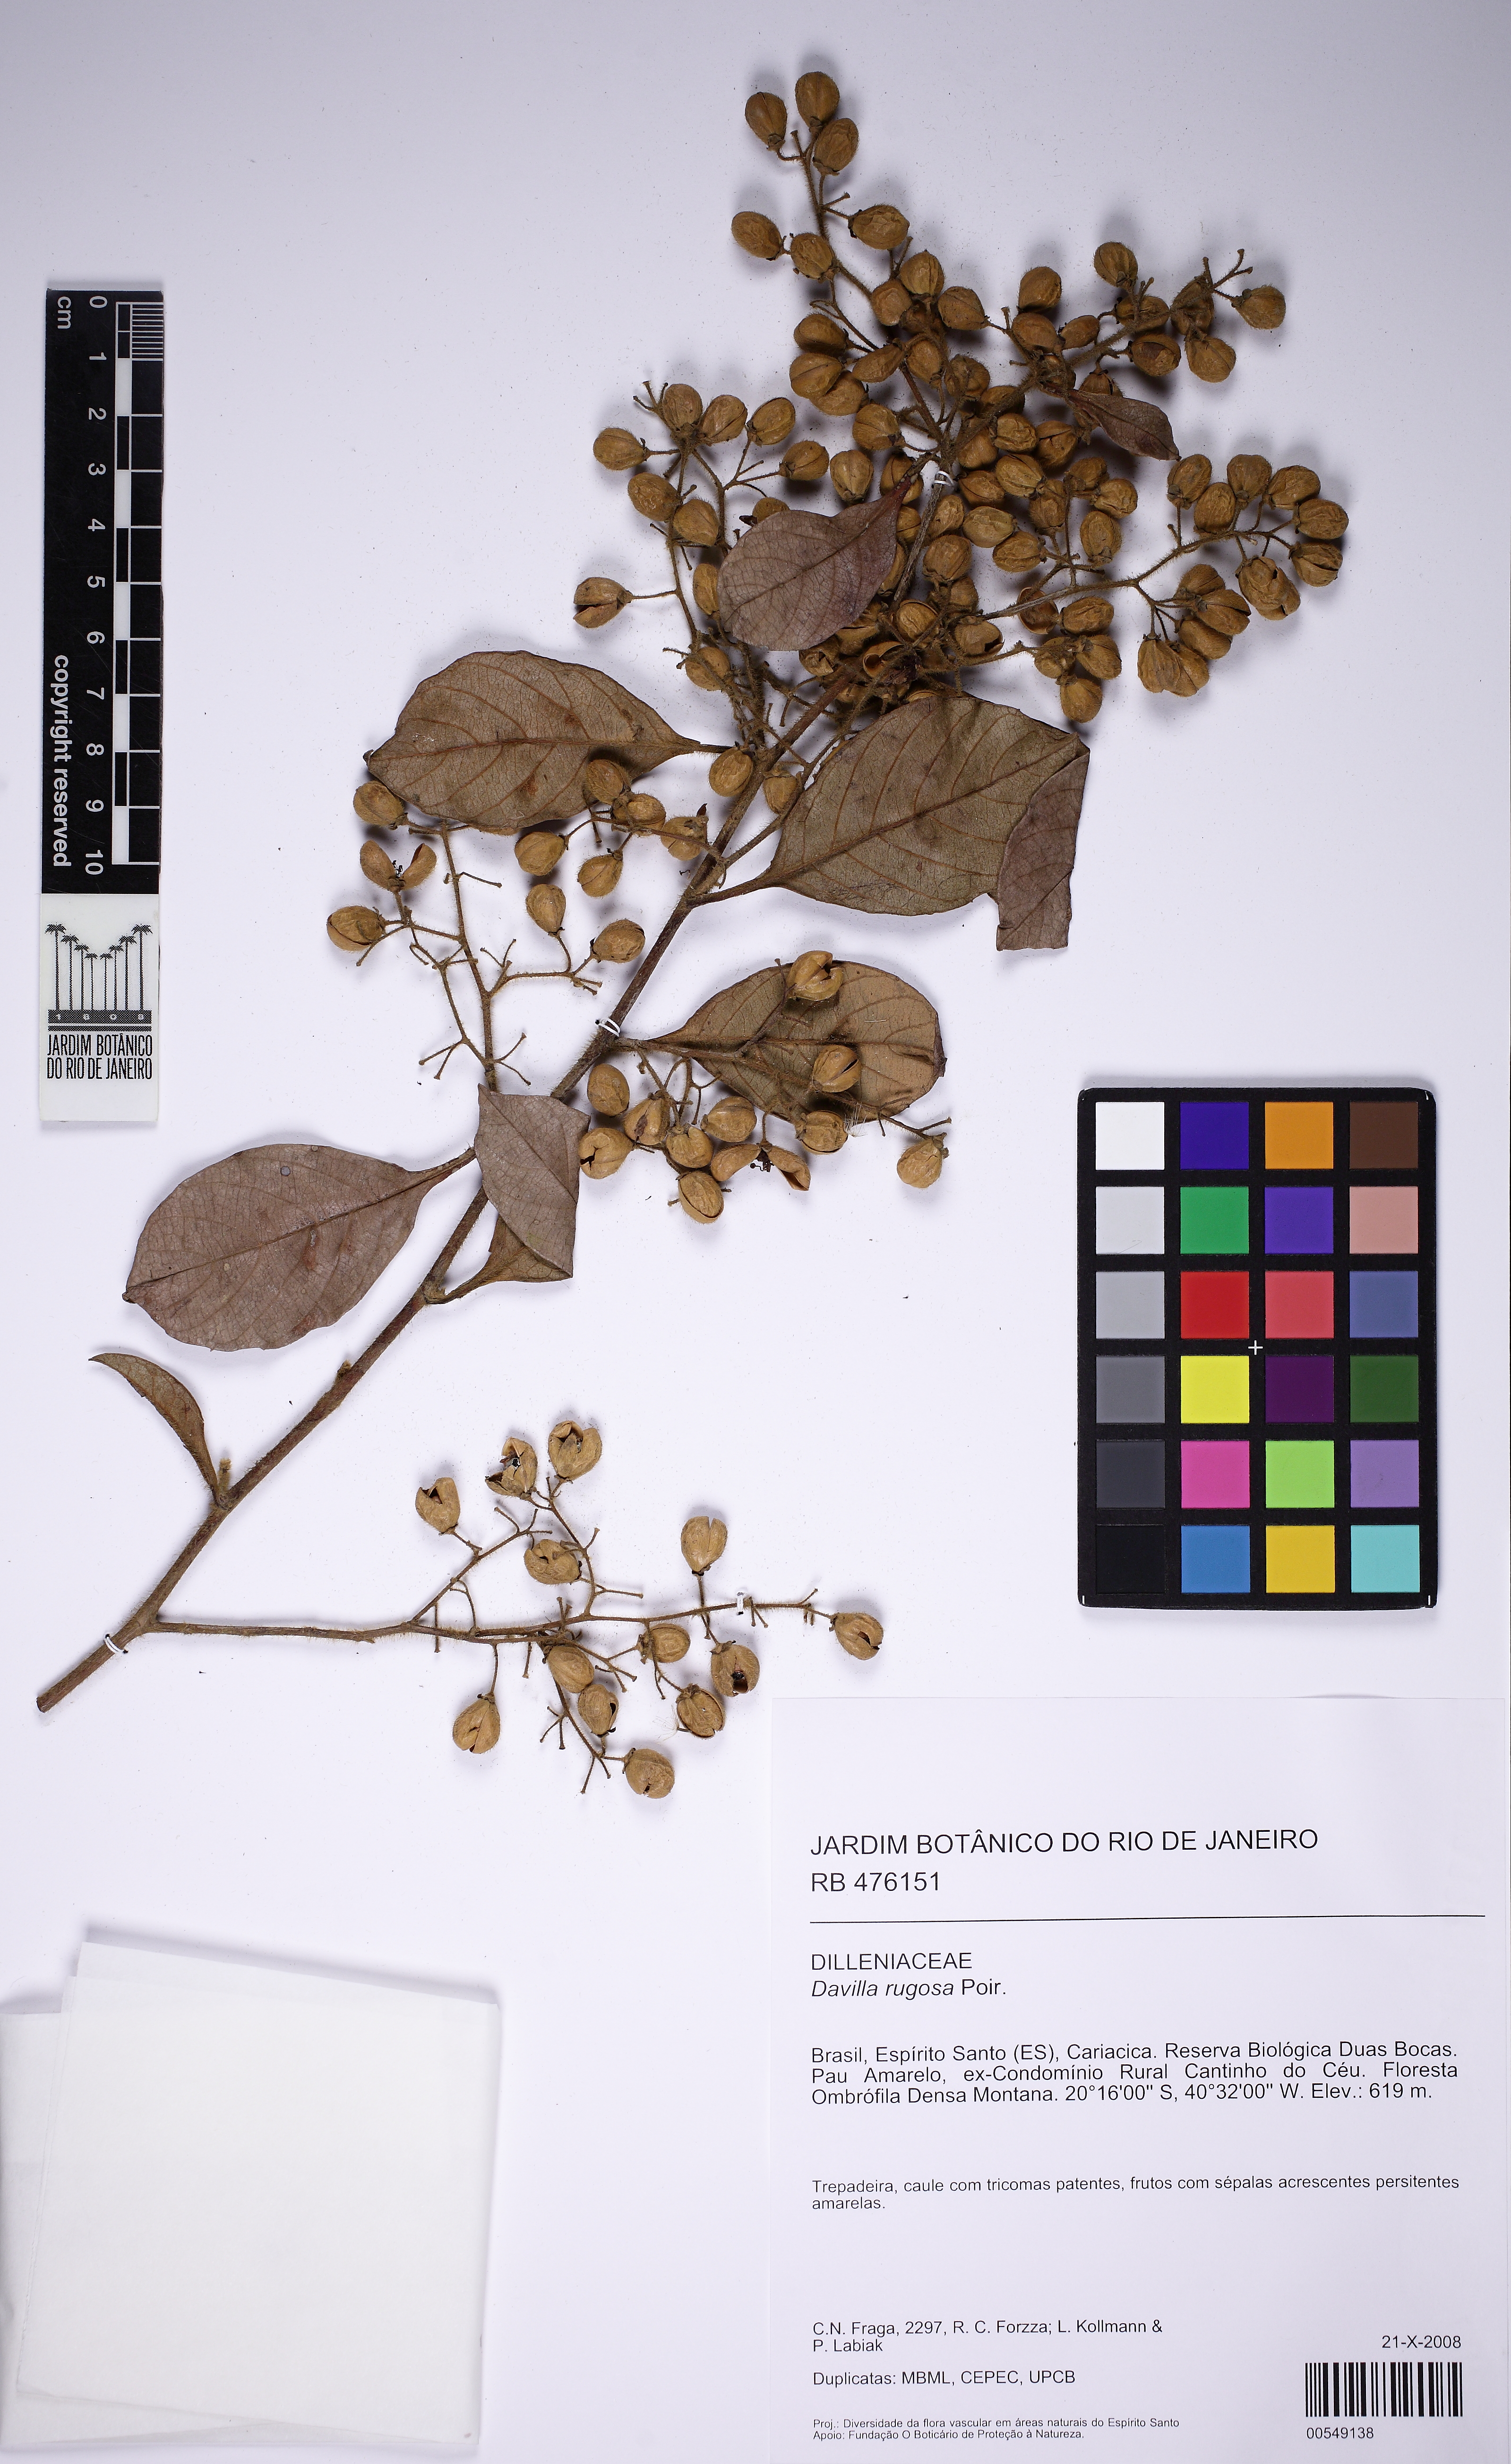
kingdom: Plantae
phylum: Tracheophyta
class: Magnoliopsida
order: Dilleniales
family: Dilleniaceae
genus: Davilla
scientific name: Davilla rugosa
